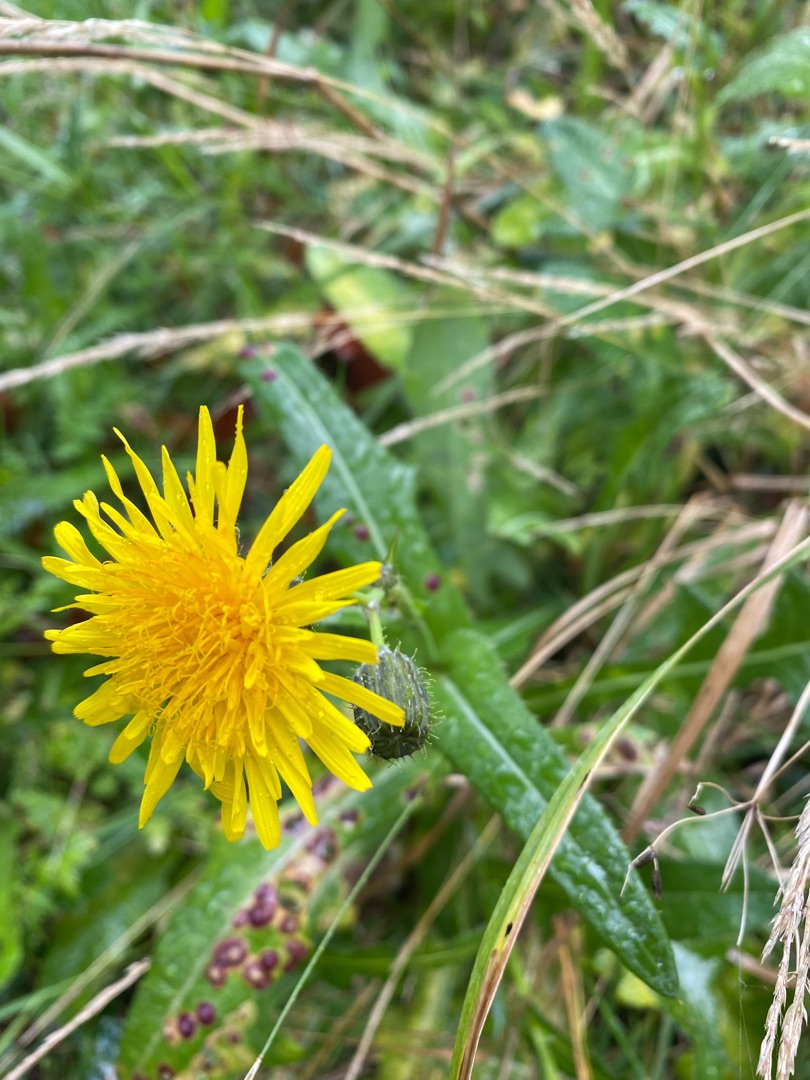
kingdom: Plantae
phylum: Tracheophyta
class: Magnoliopsida
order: Asterales
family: Asteraceae
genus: Sonchus
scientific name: Sonchus arvensis
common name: Ager-svinemælk
